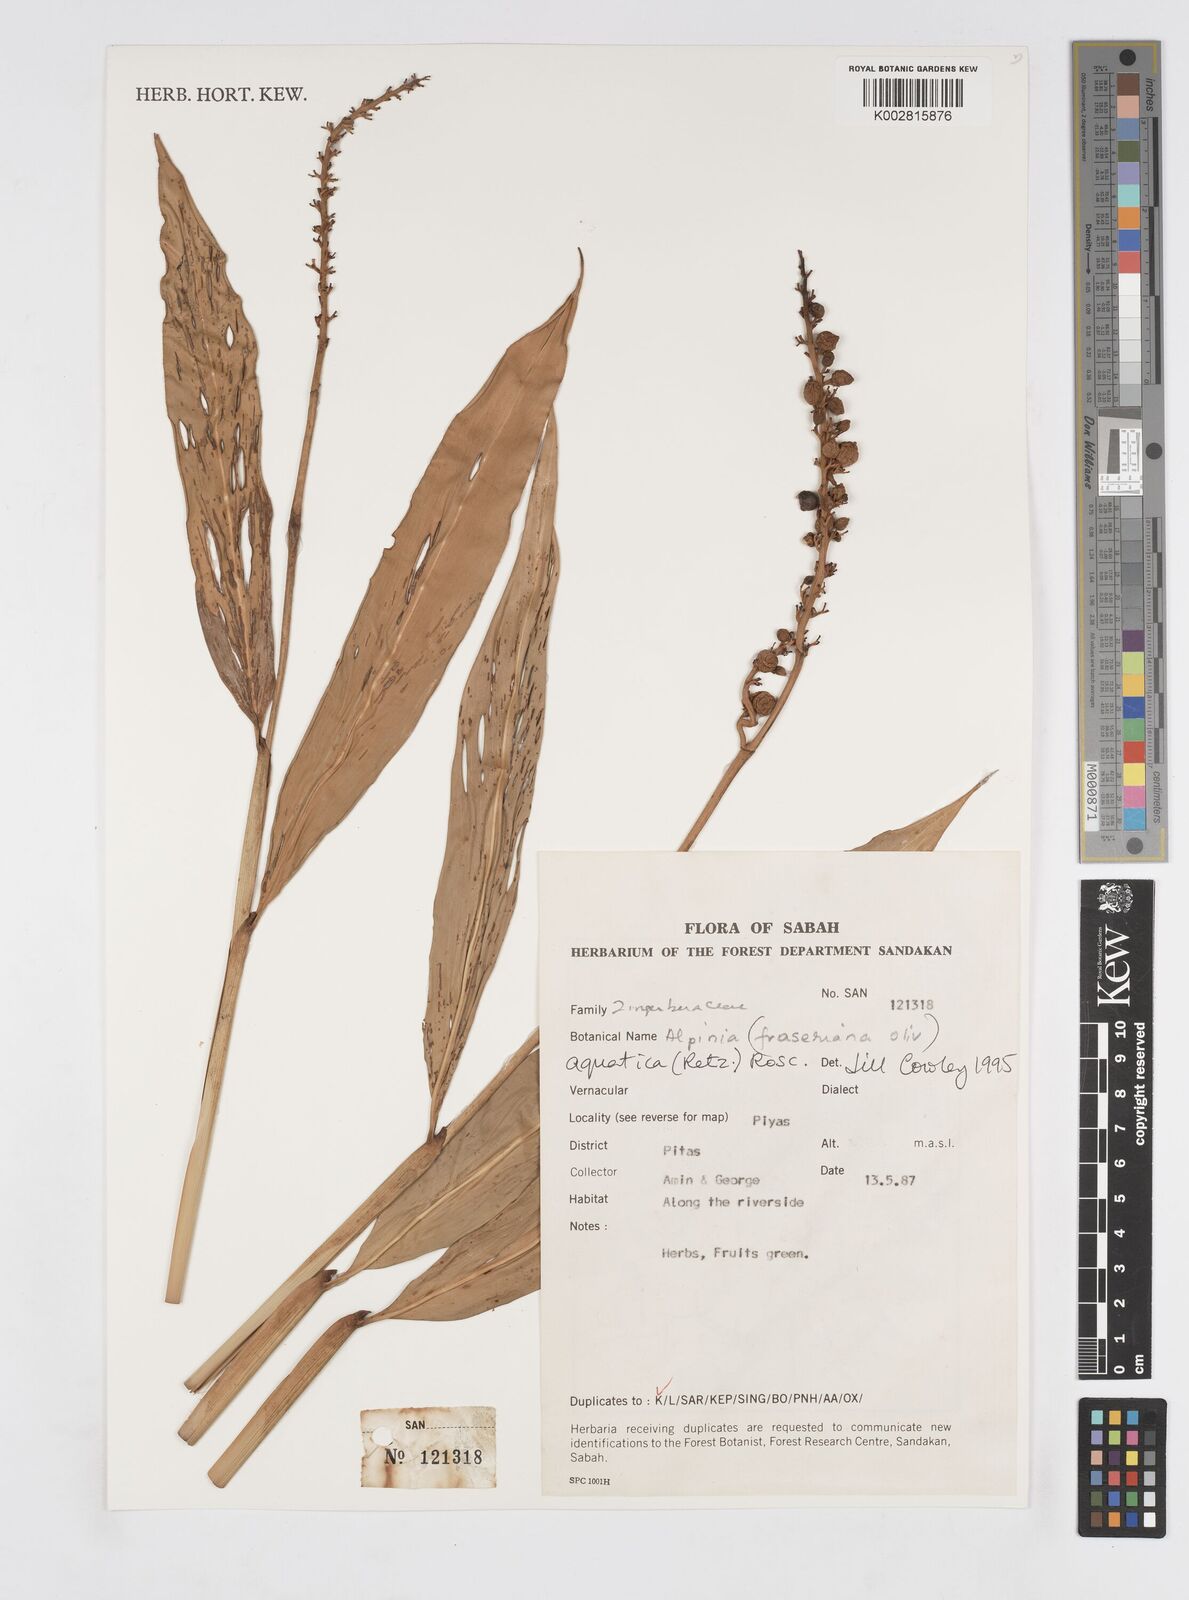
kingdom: Plantae
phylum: Tracheophyta
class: Liliopsida
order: Zingiberales
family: Zingiberaceae
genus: Alpinia
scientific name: Alpinia aquatica
